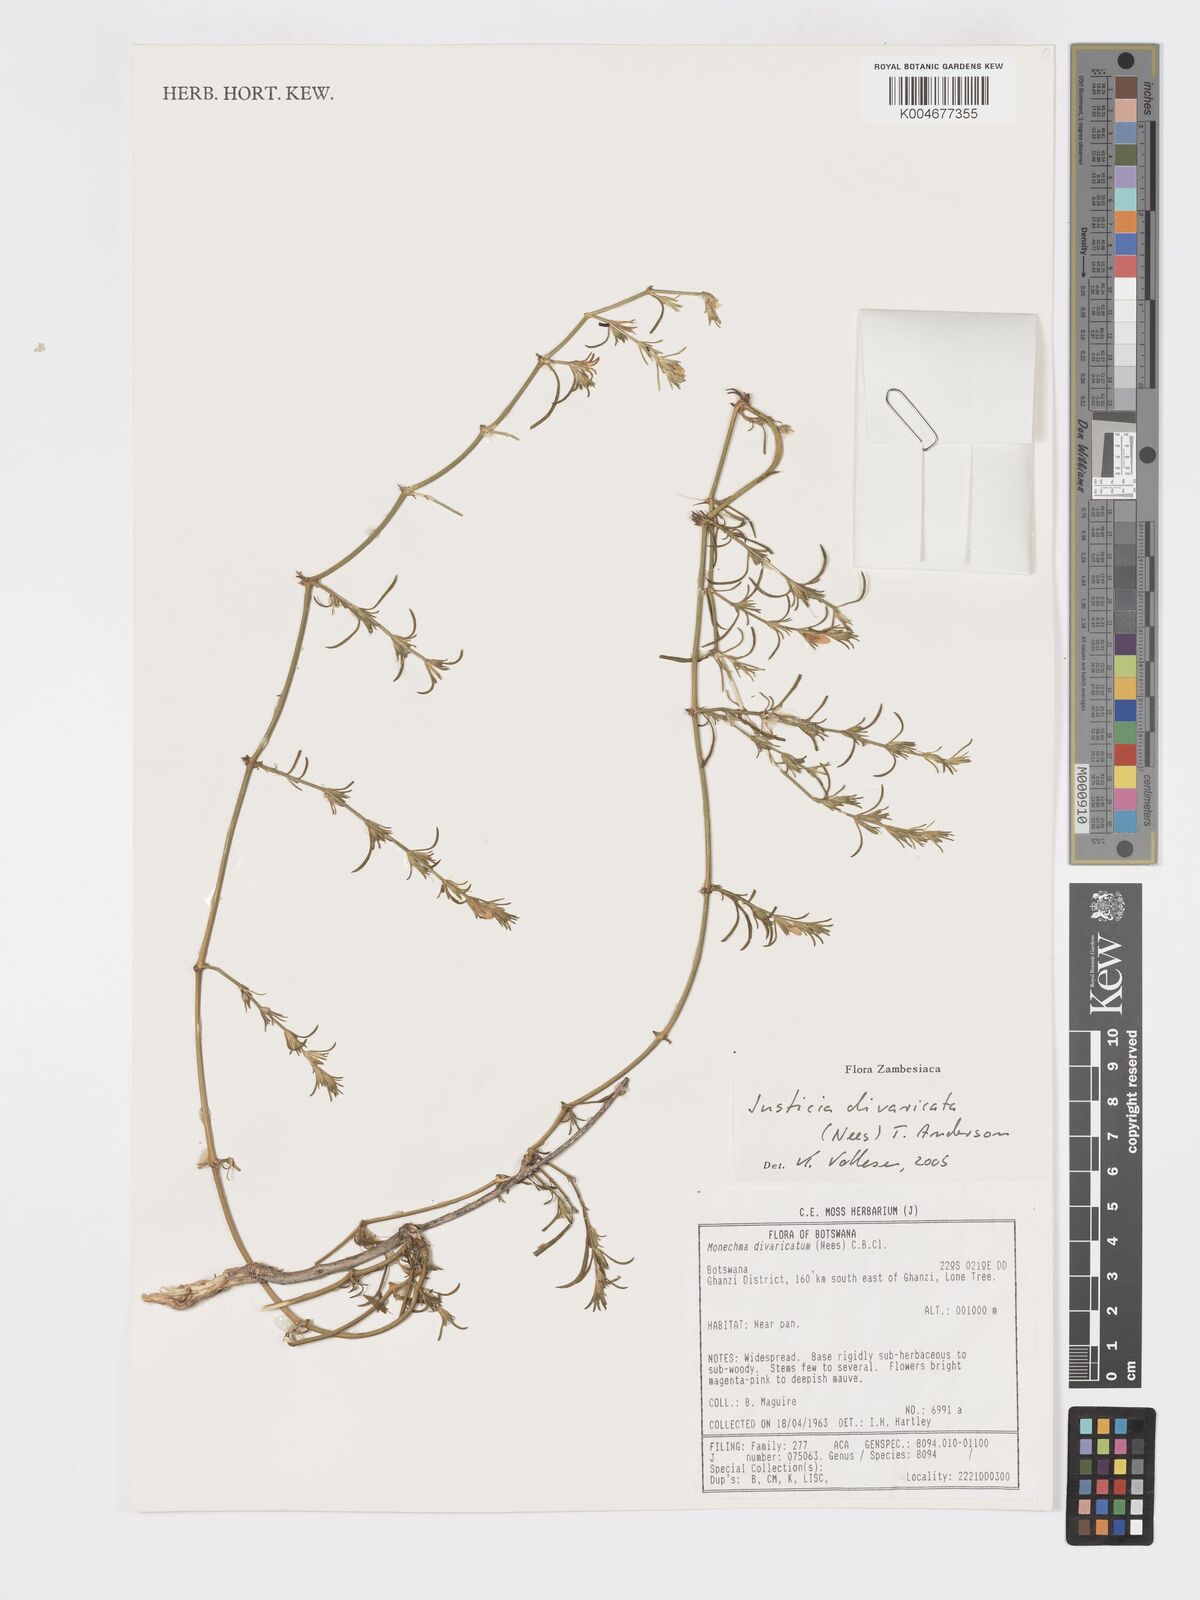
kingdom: Plantae
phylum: Tracheophyta
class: Magnoliopsida
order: Lamiales
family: Acanthaceae
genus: Pogonospermum
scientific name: Pogonospermum
